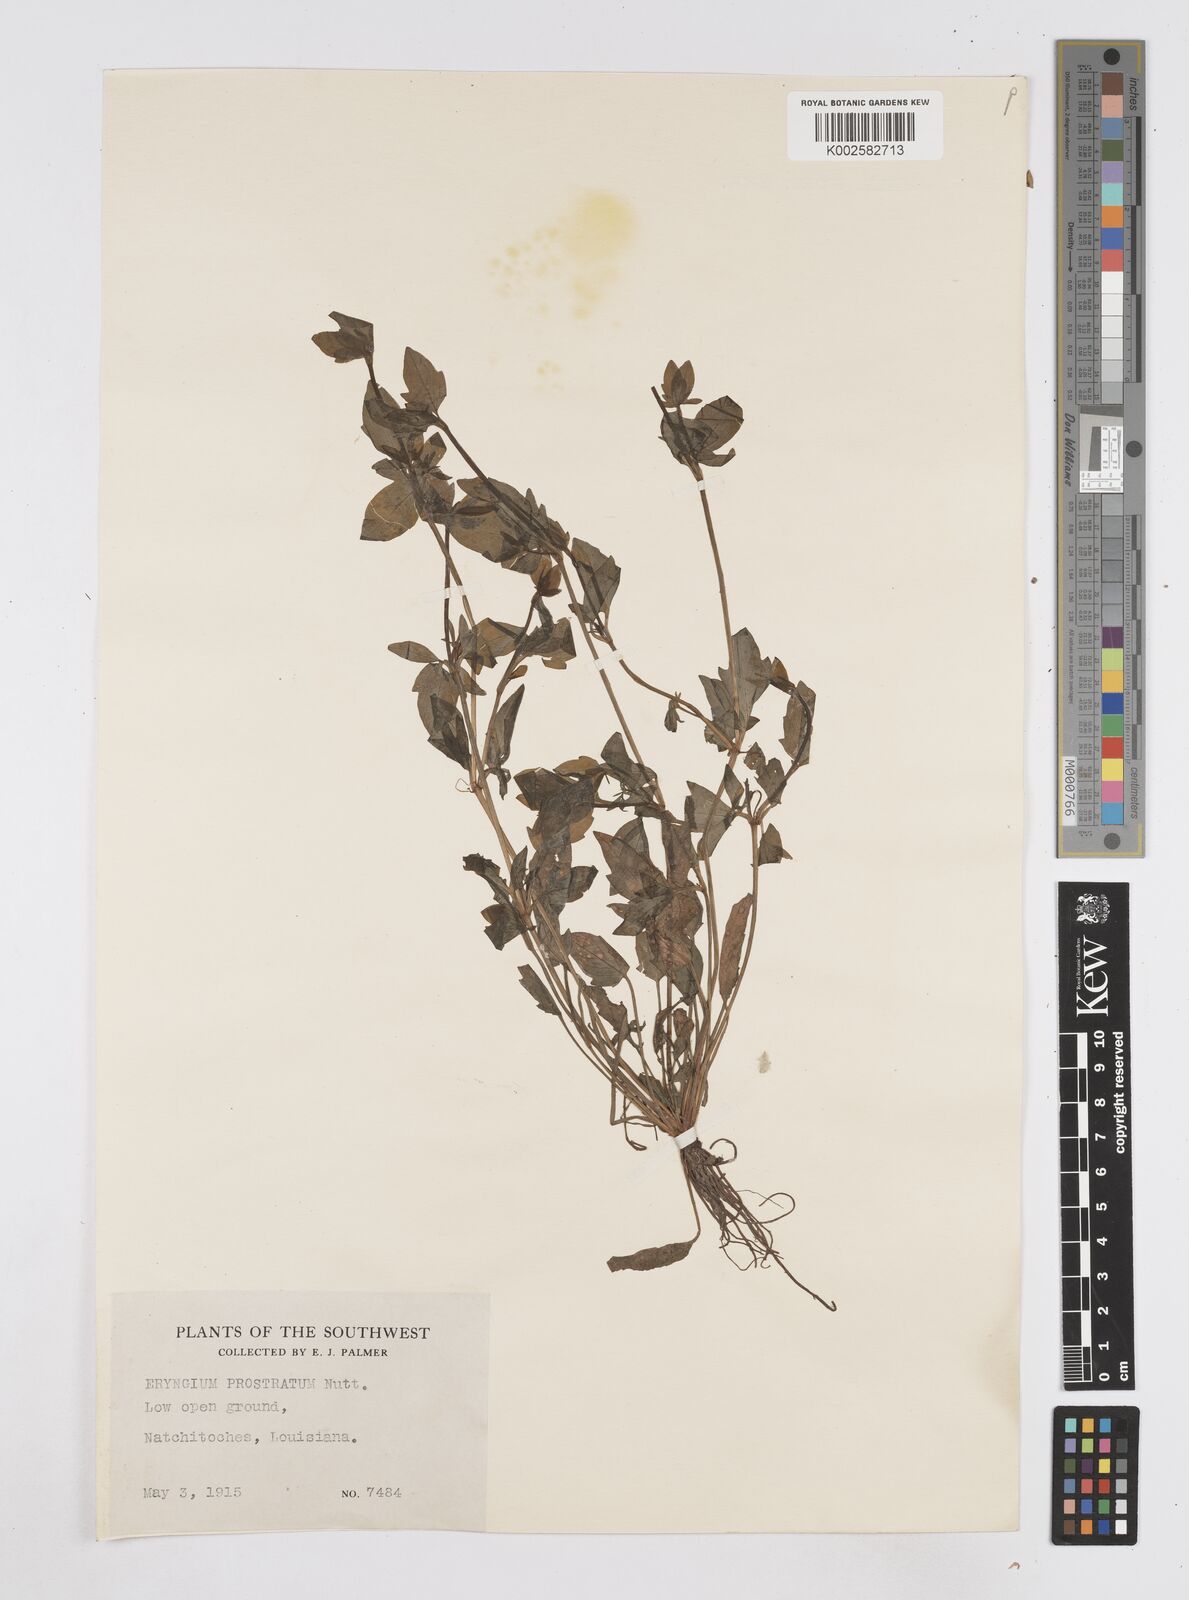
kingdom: Plantae
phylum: Tracheophyta
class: Magnoliopsida
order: Apiales
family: Apiaceae
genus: Eryngium
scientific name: Eryngium prostratum
